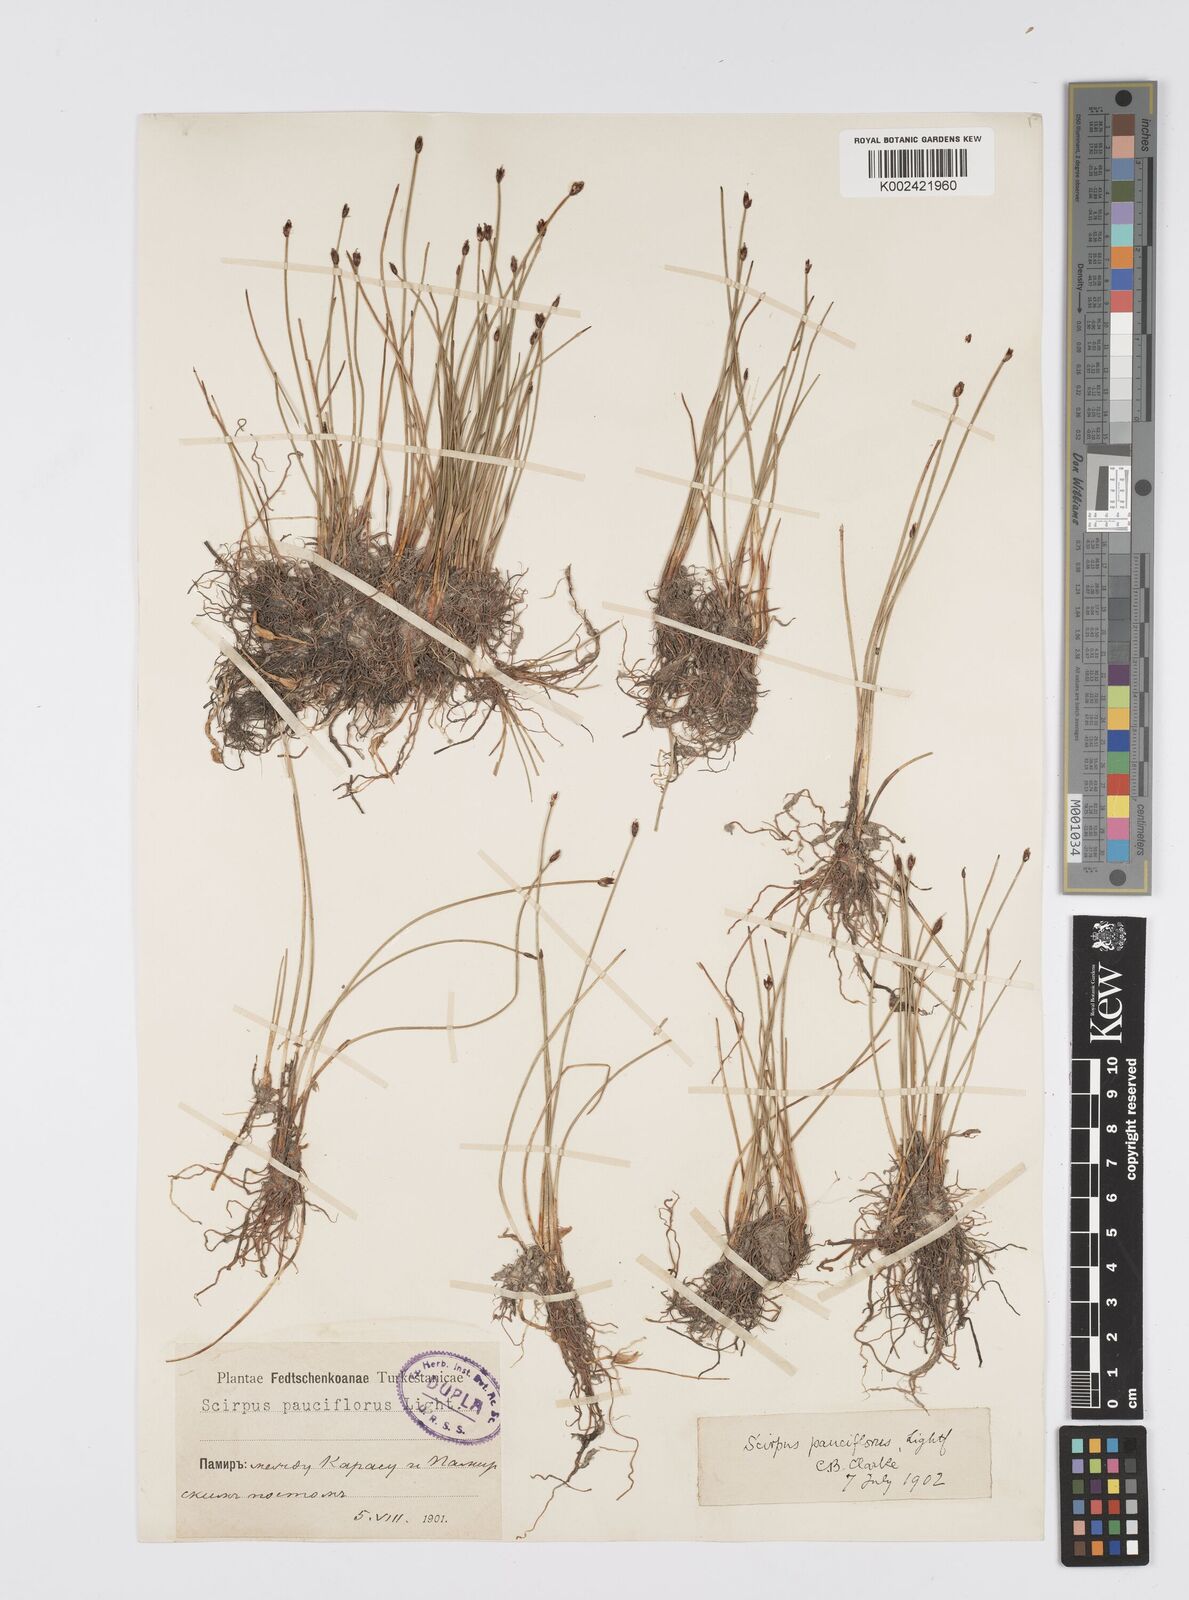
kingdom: Plantae
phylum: Tracheophyta
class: Liliopsida
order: Poales
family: Cyperaceae
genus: Eleocharis
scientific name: Eleocharis quinqueflora
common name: Few-flowered spike-rush
